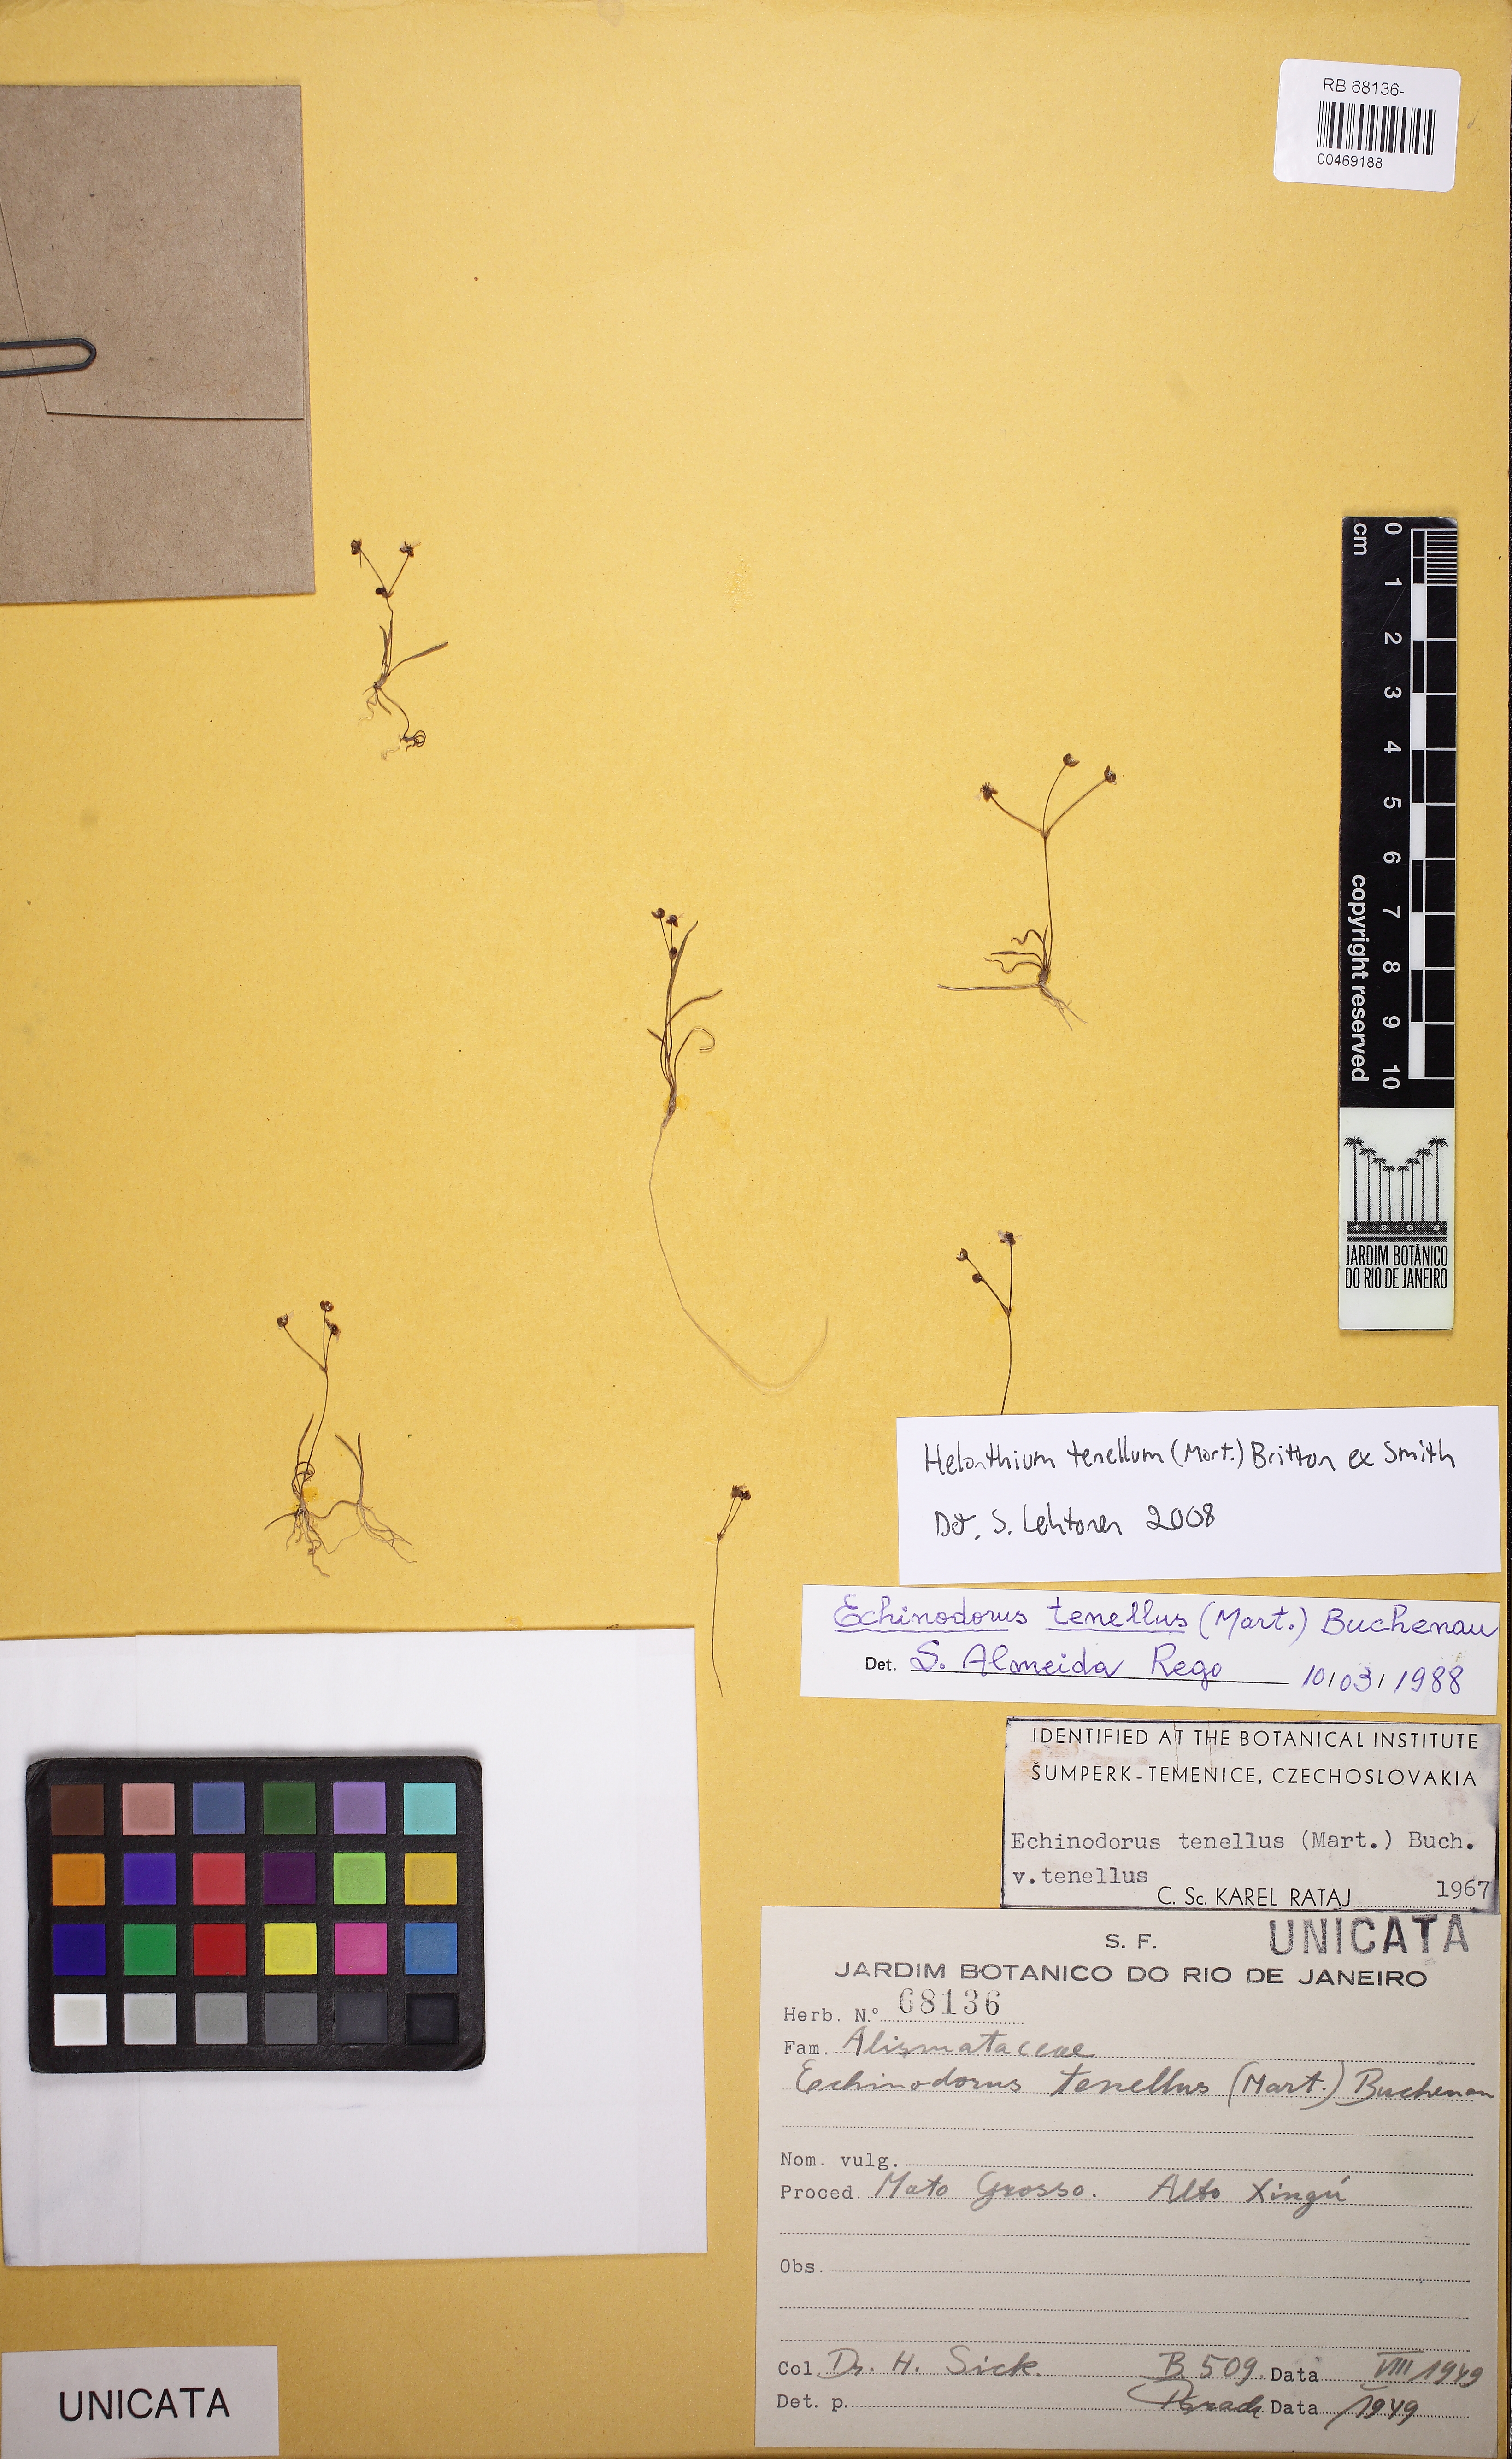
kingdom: Plantae
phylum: Tracheophyta
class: Liliopsida
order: Alismatales
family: Alismataceae
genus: Helanthium
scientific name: Helanthium tenellum
